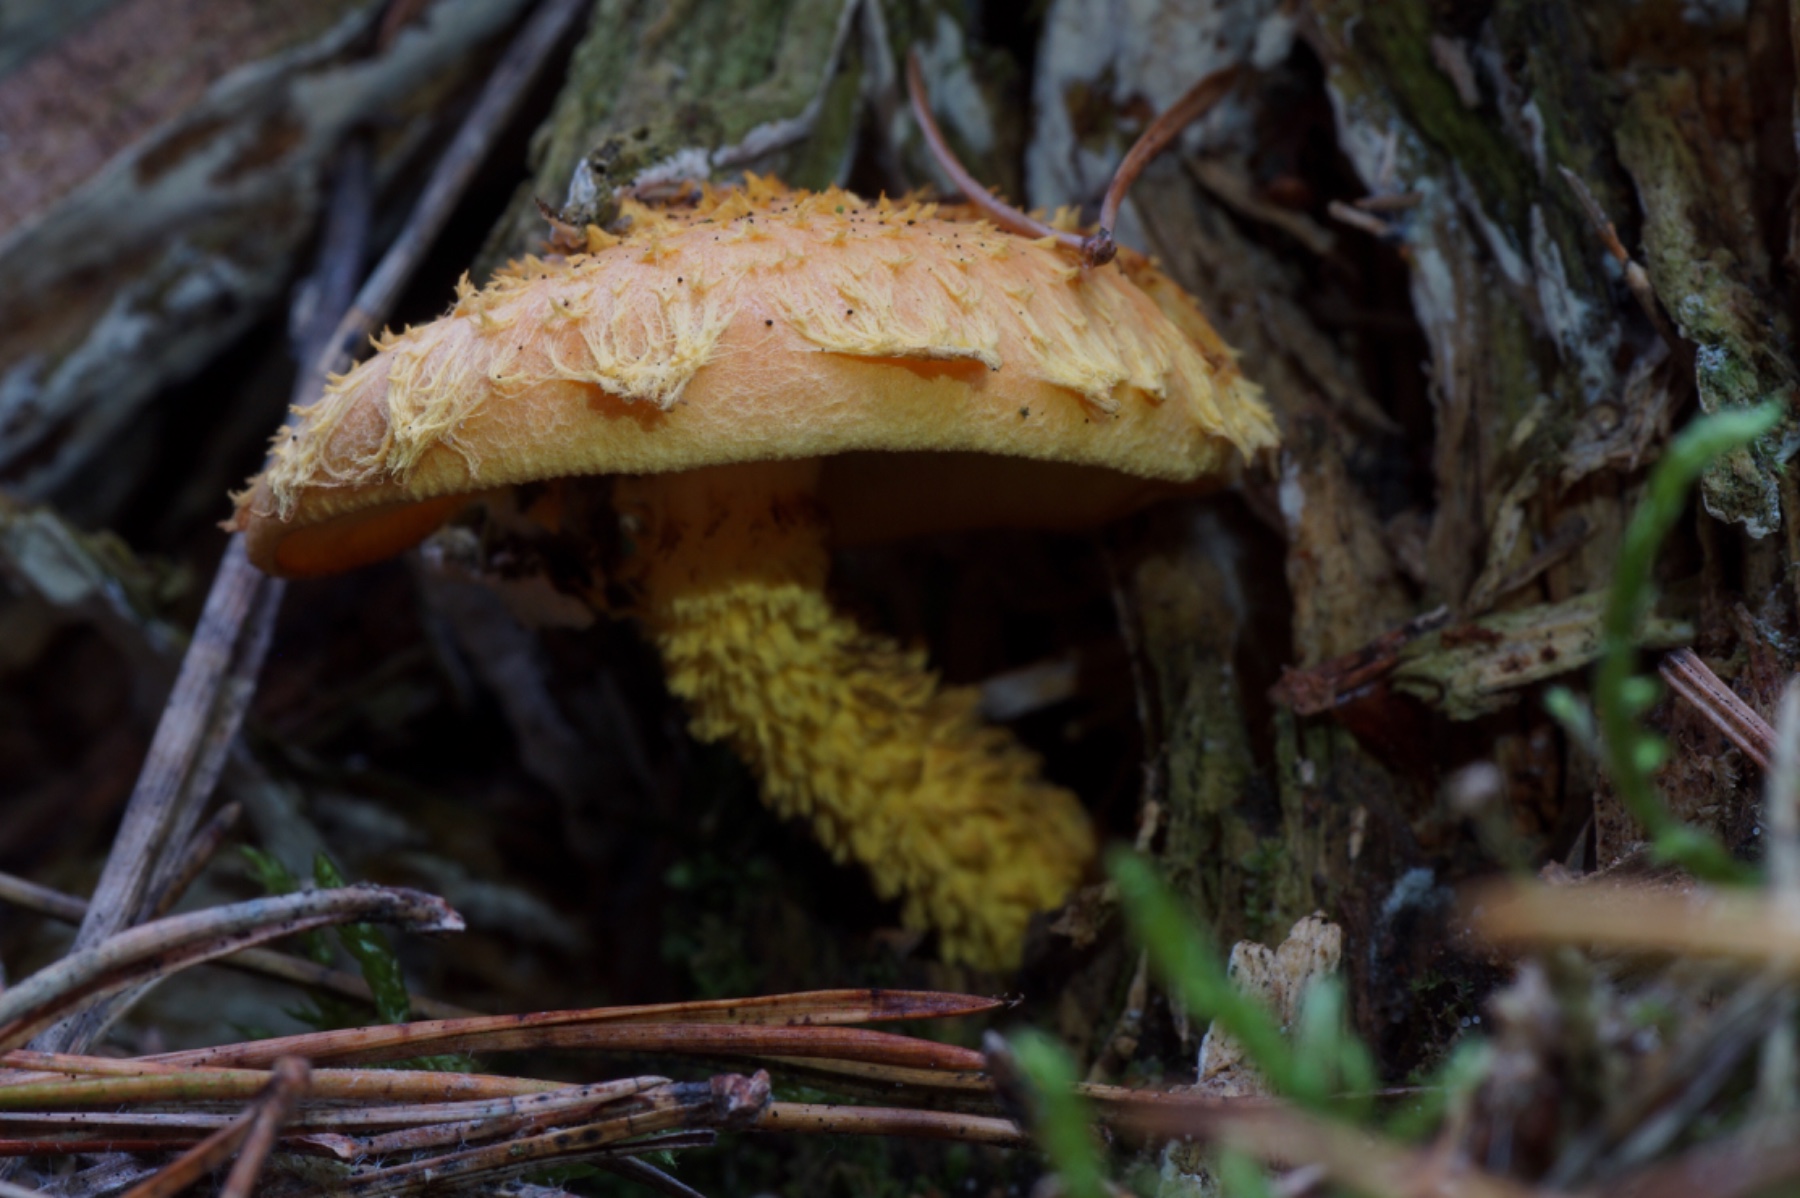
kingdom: Fungi
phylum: Basidiomycota
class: Agaricomycetes
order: Agaricales
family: Strophariaceae
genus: Pholiota
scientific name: Pholiota flammans
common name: flamme-skælhat
